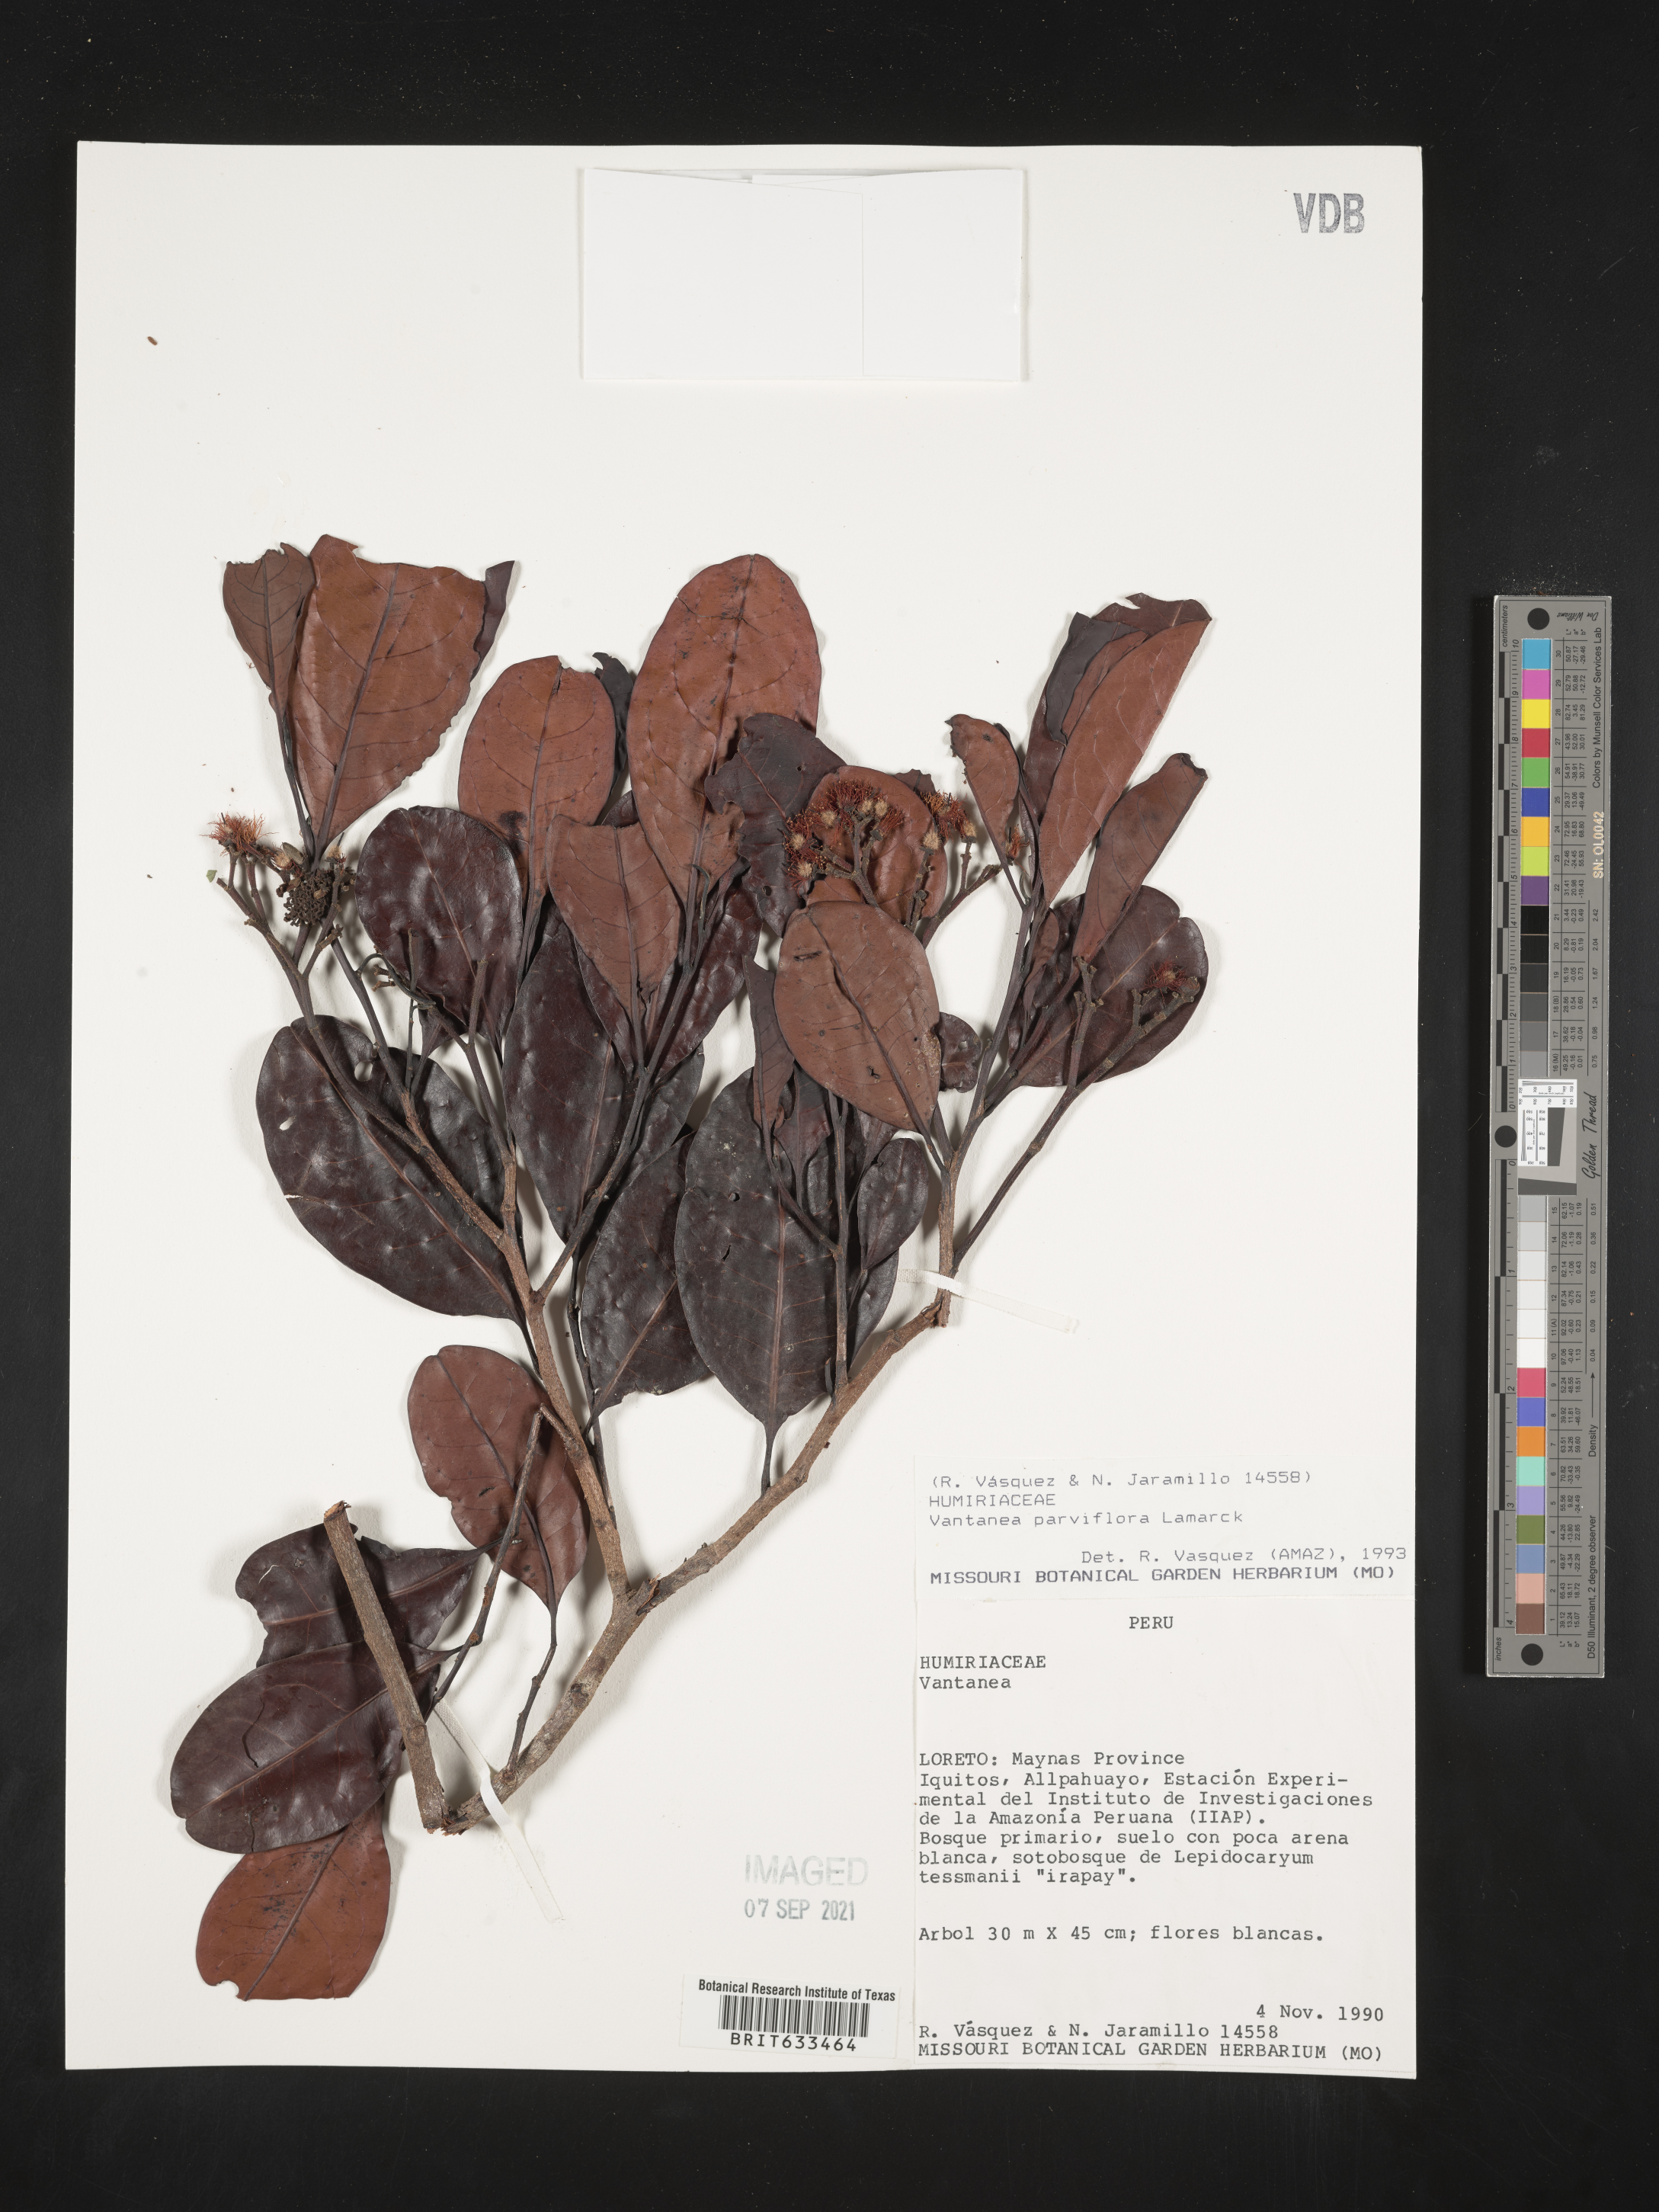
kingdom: Plantae
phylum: Tracheophyta
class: Magnoliopsida
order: Malpighiales
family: Humiriaceae
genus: Vantanea
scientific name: Vantanea
